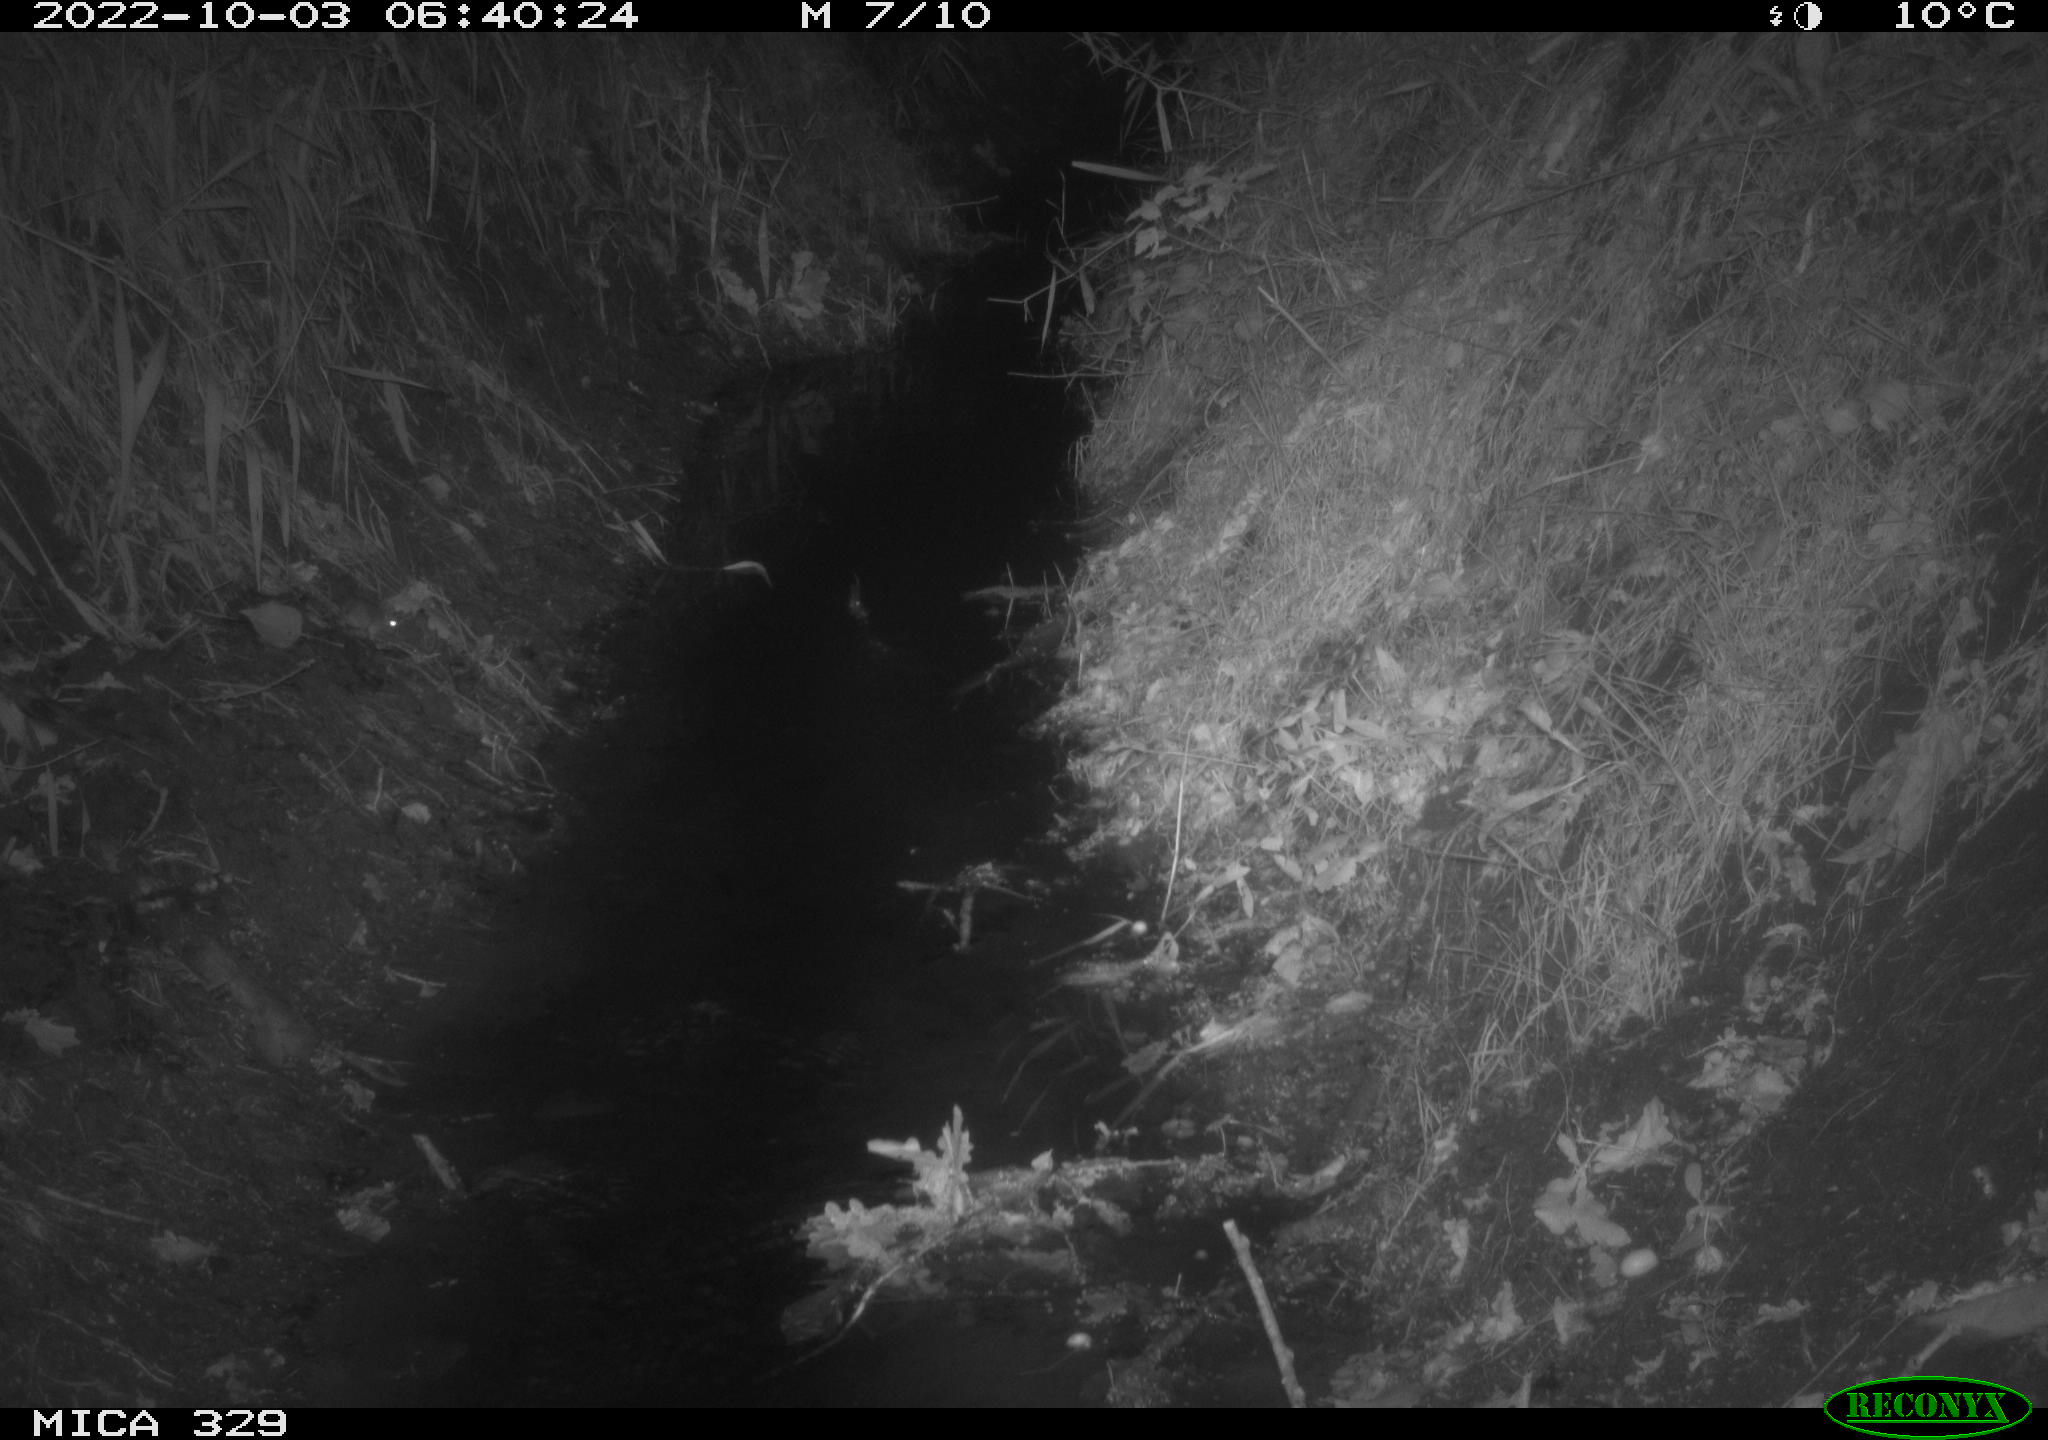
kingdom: Animalia
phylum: Chordata
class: Mammalia
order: Rodentia
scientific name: Rodentia
